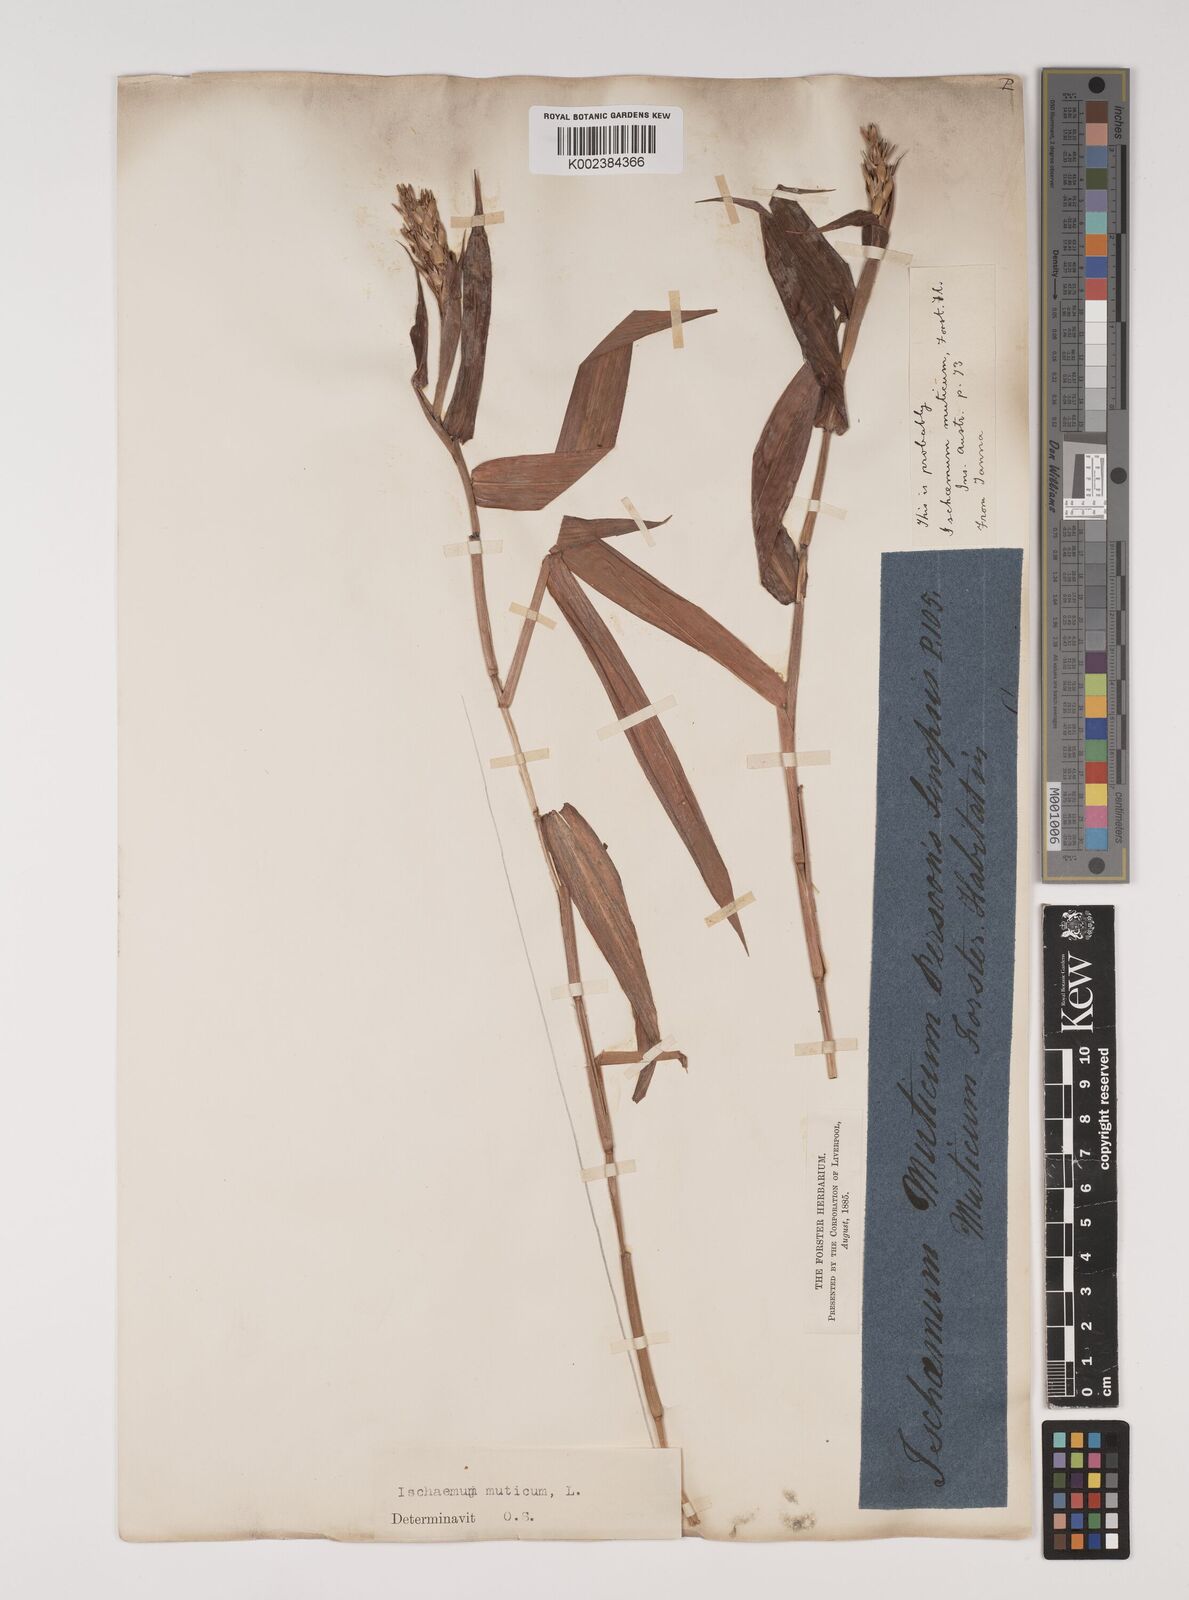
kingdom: Plantae
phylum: Tracheophyta
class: Liliopsida
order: Poales
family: Poaceae
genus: Ischaemum
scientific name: Ischaemum muticum
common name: Drought grass
